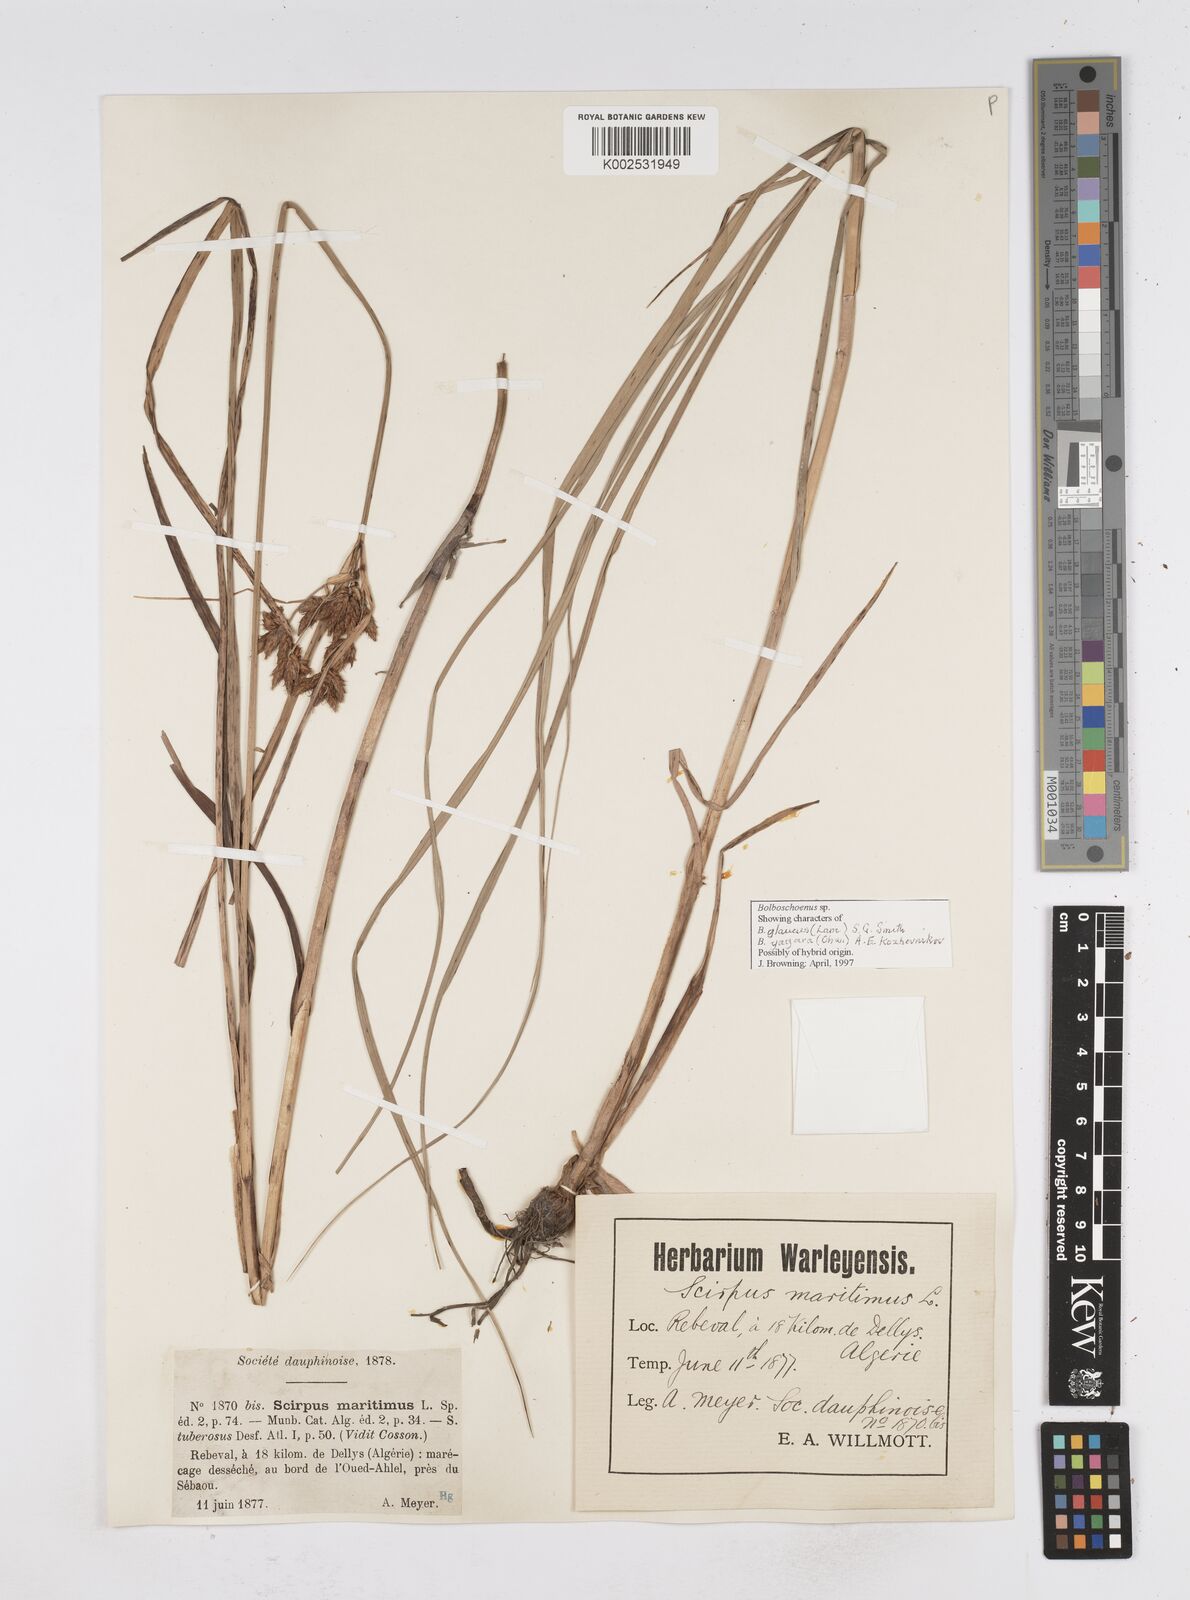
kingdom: Plantae
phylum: Tracheophyta
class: Liliopsida
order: Poales
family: Cyperaceae
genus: Bolboschoenus
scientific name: Bolboschoenus maritimus
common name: Sea club-rush
